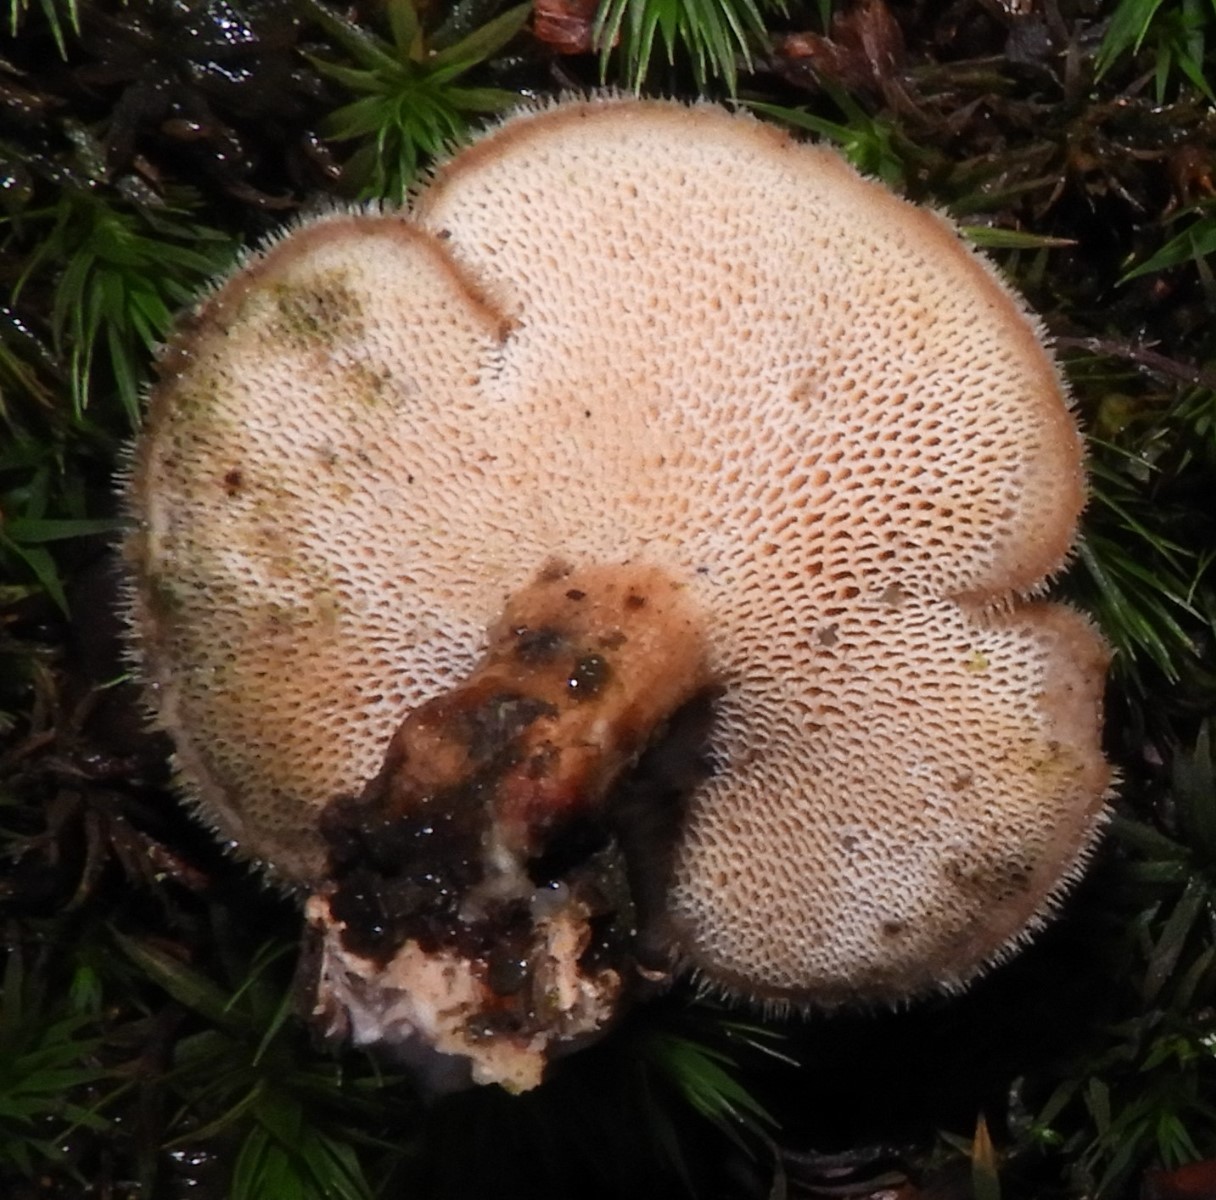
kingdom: Fungi
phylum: Basidiomycota
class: Agaricomycetes
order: Polyporales
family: Polyporaceae
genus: Lentinus
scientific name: Lentinus brumalis
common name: vinter-stilkporesvamp
